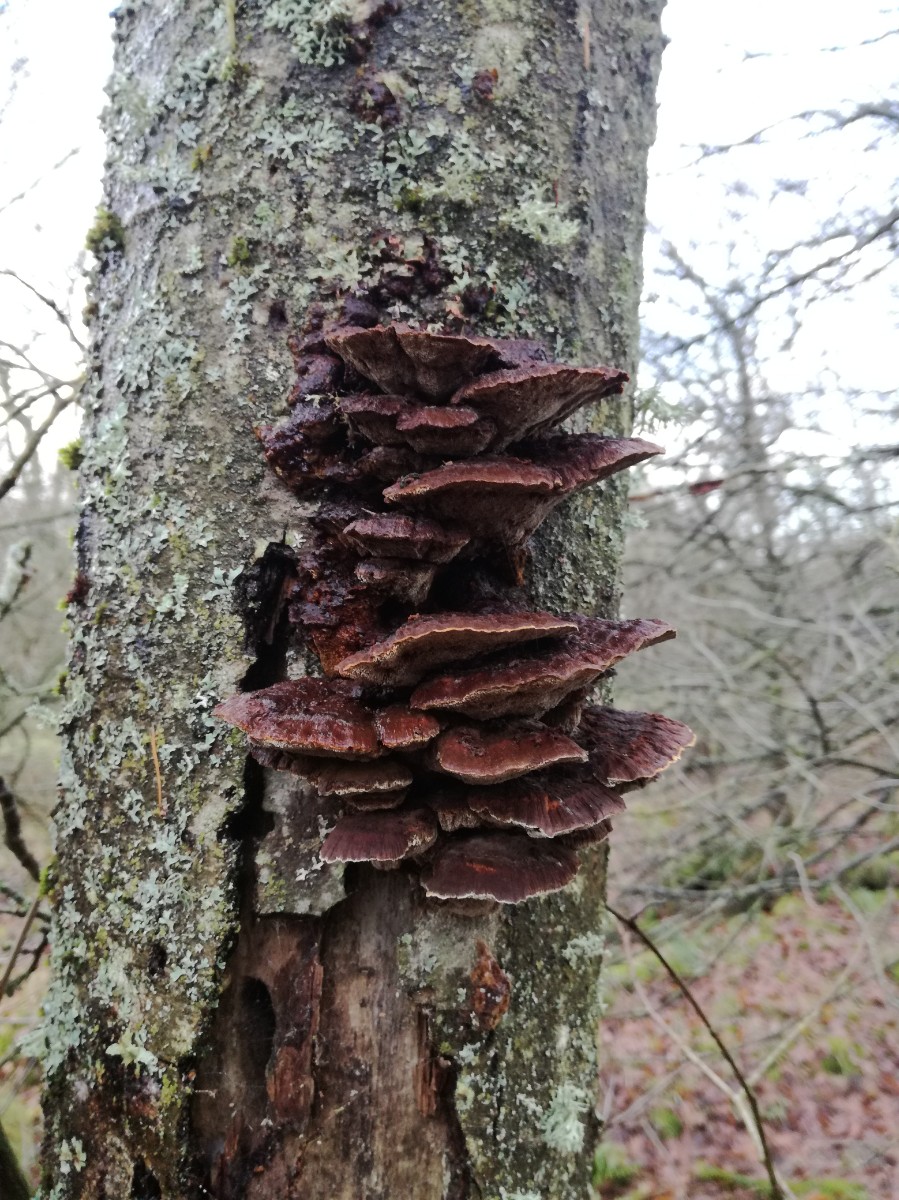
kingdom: Fungi
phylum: Basidiomycota
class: Agaricomycetes
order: Hymenochaetales
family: Hymenochaetaceae
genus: Xanthoporia
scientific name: Xanthoporia radiata
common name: elle-spejlporesvamp
